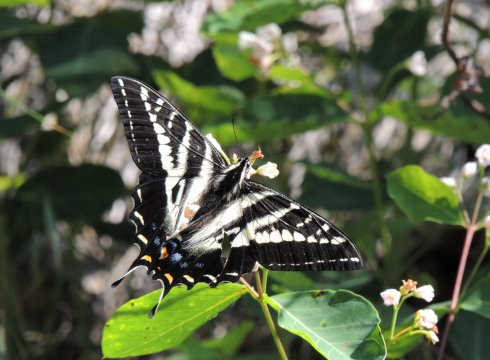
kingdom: Animalia
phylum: Arthropoda
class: Insecta
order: Lepidoptera
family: Papilionidae
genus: Pterourus
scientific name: Pterourus eurymedon
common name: Pale Swallowtail
